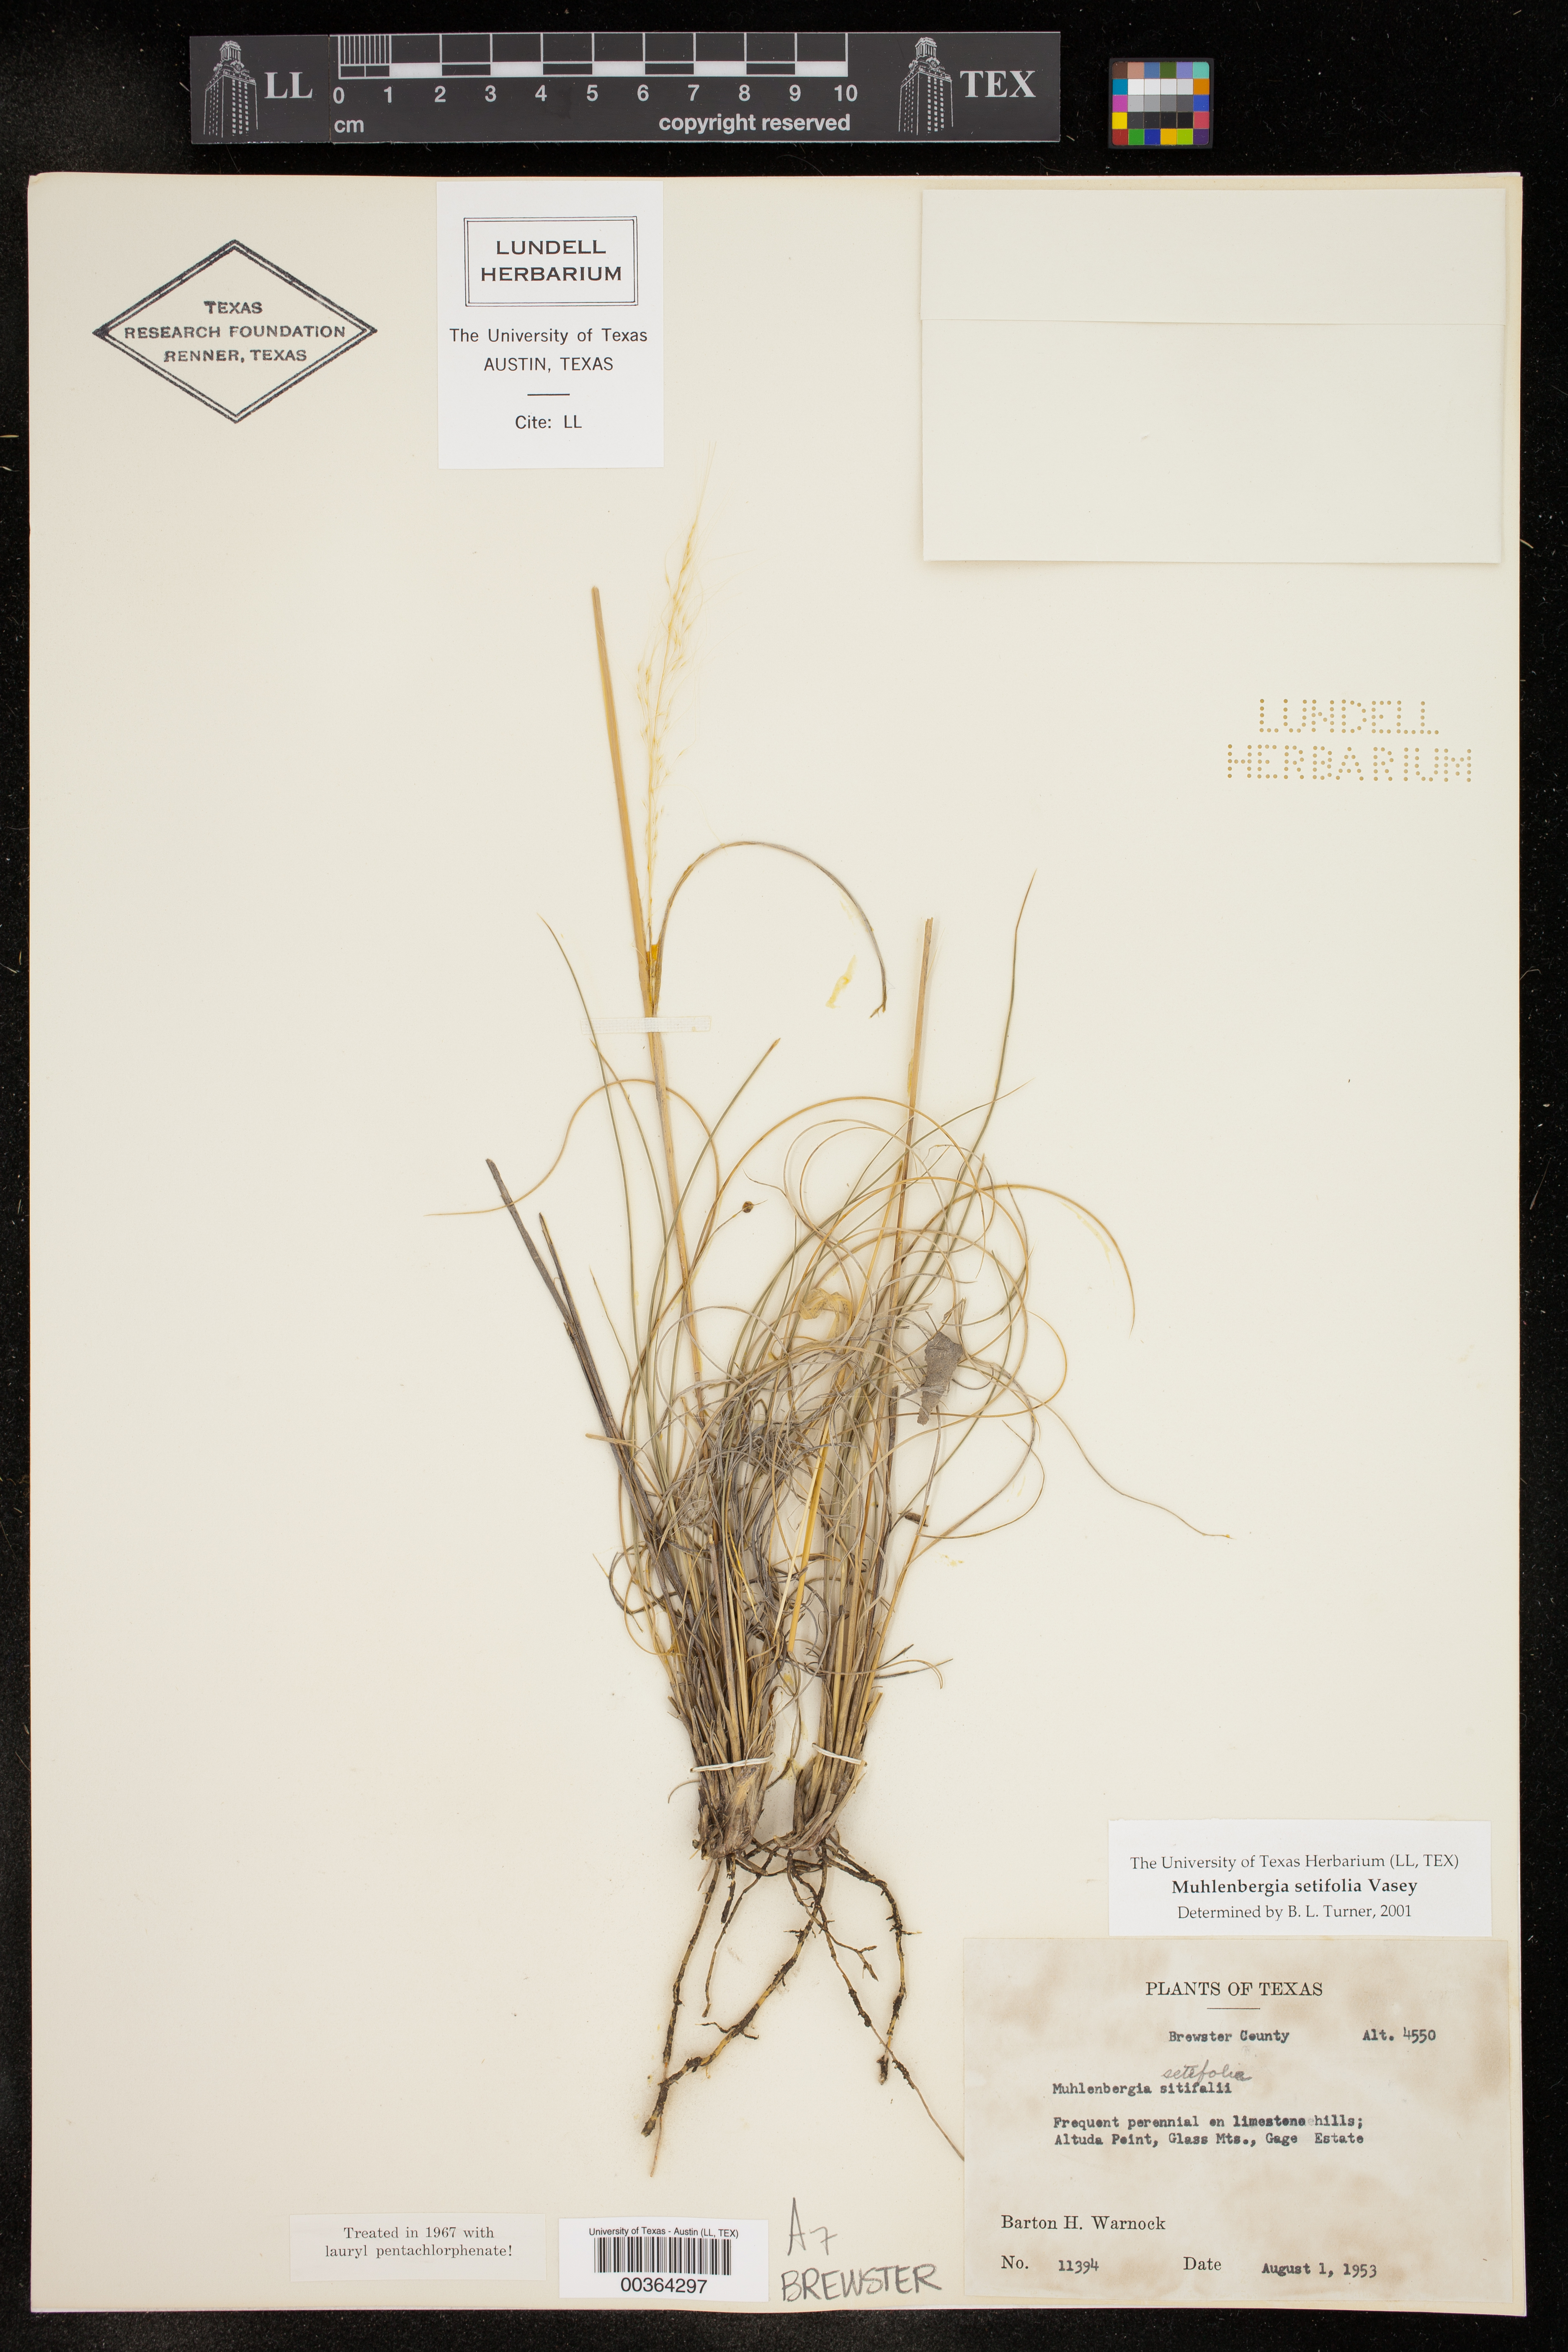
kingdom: Plantae
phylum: Tracheophyta
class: Liliopsida
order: Poales
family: Poaceae
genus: Muhlenbergia
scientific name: Muhlenbergia setifolia
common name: Curly-leaf muhly
